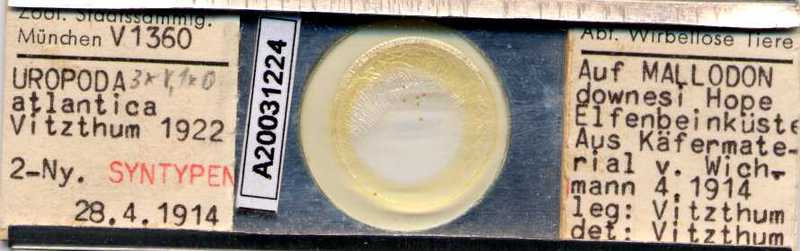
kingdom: Animalia
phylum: Arthropoda
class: Arachnida
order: Mesostigmata
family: Trematuridae
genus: Trichouropoda
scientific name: Trichouropoda
